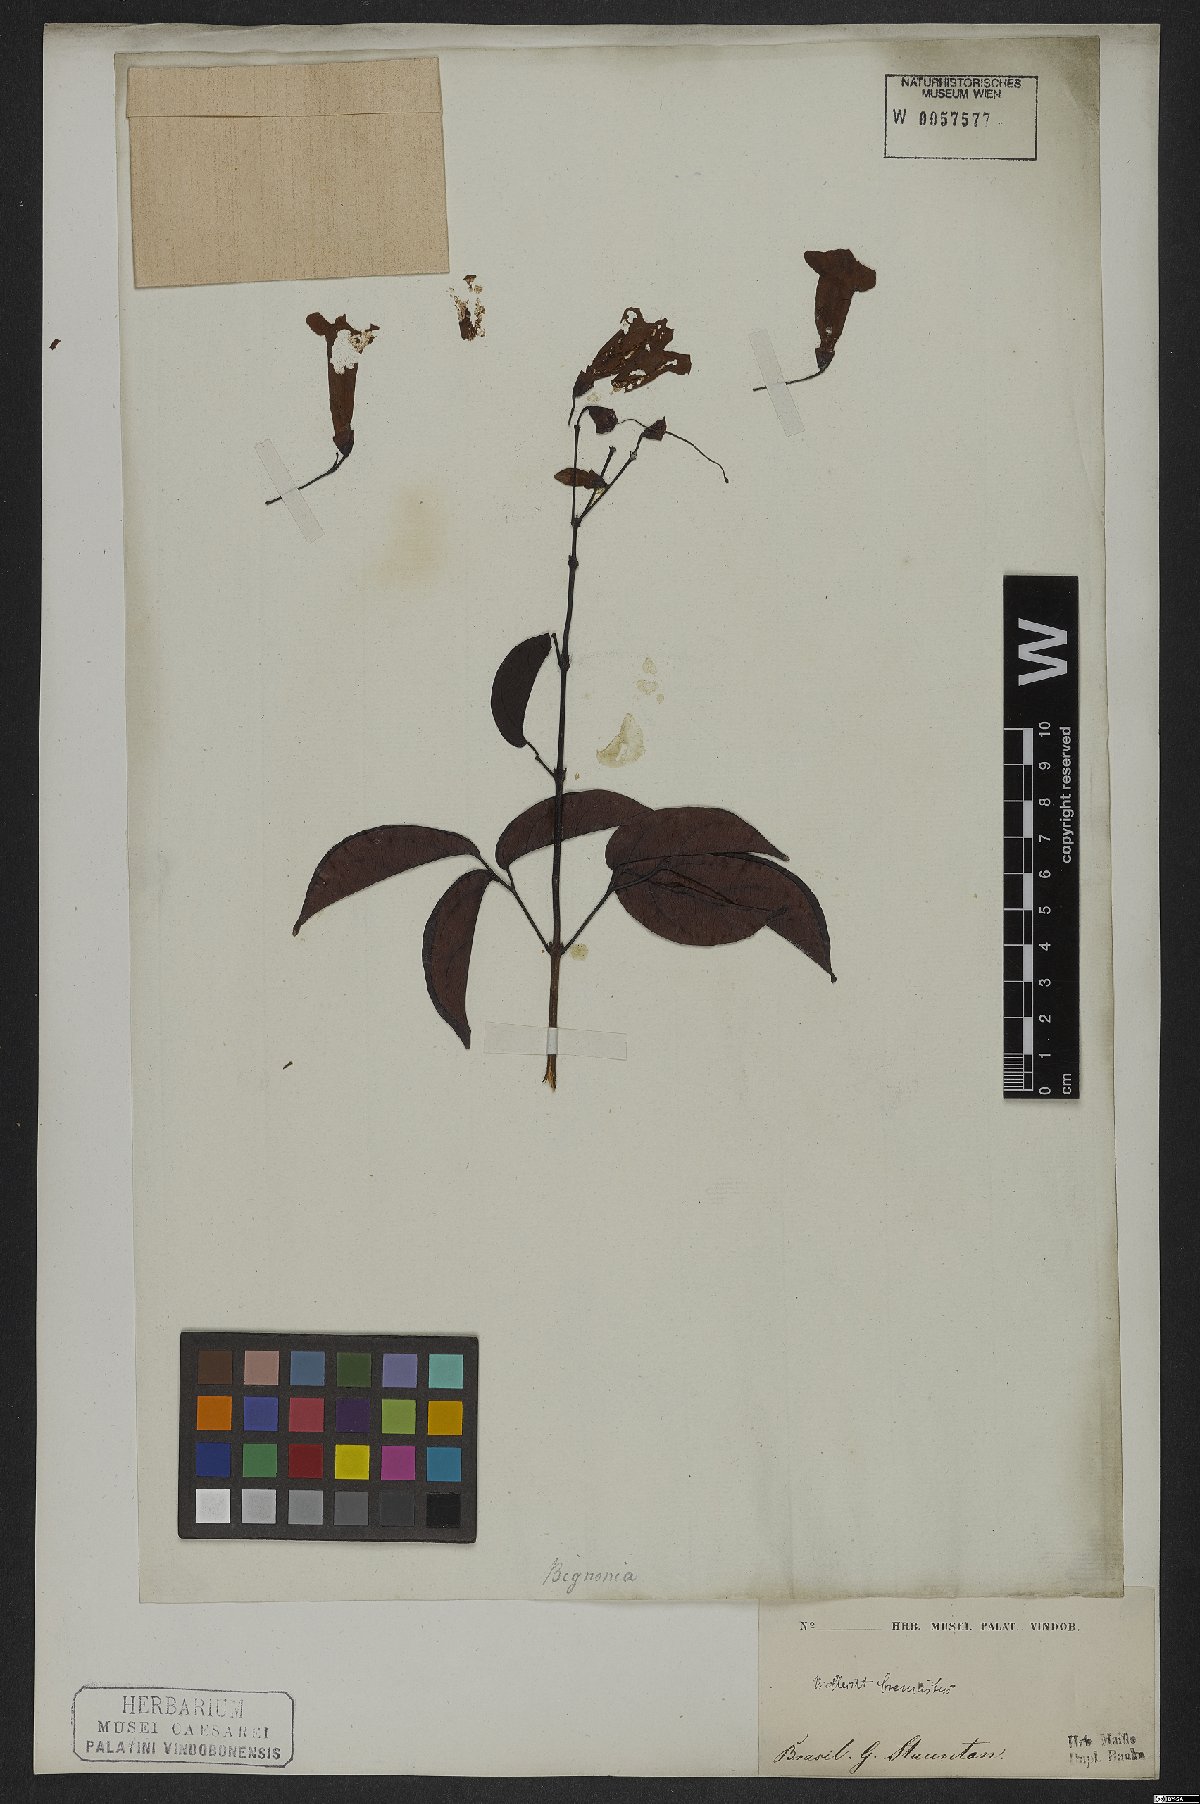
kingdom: Plantae
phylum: Tracheophyta
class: Magnoliopsida
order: Lamiales
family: Bignoniaceae
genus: Cuspidaria
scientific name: Cuspidaria sceptrum
